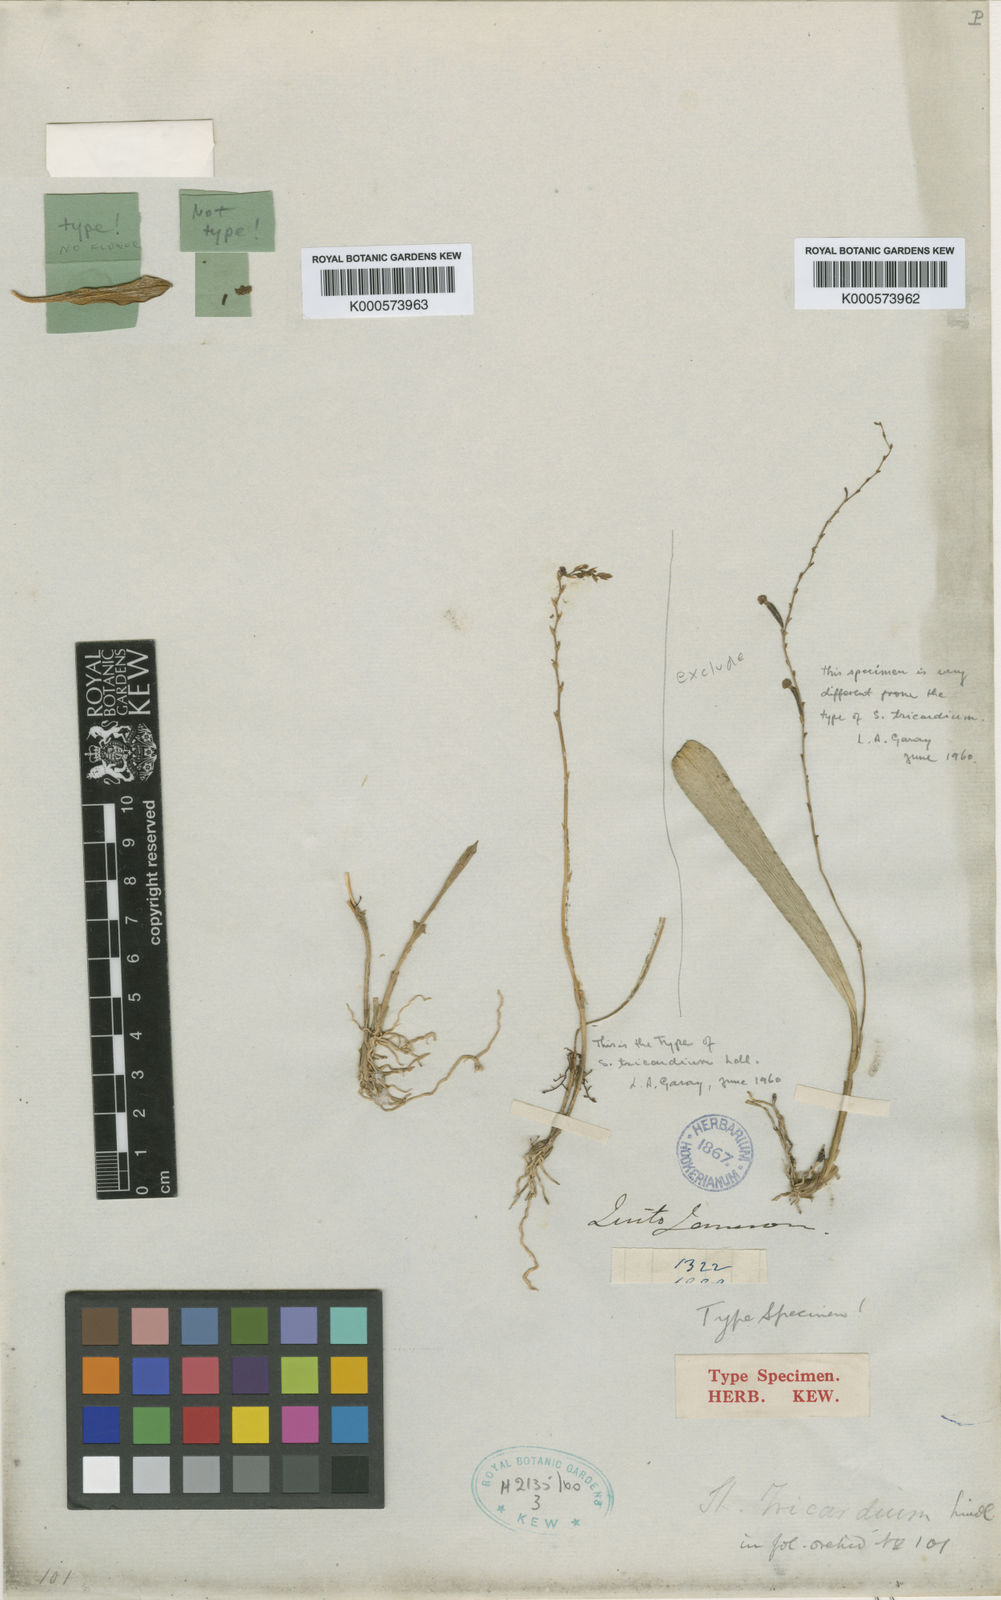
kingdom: Plantae
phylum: Tracheophyta
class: Liliopsida
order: Asparagales
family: Orchidaceae
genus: Stelis
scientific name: Stelis tricardium
